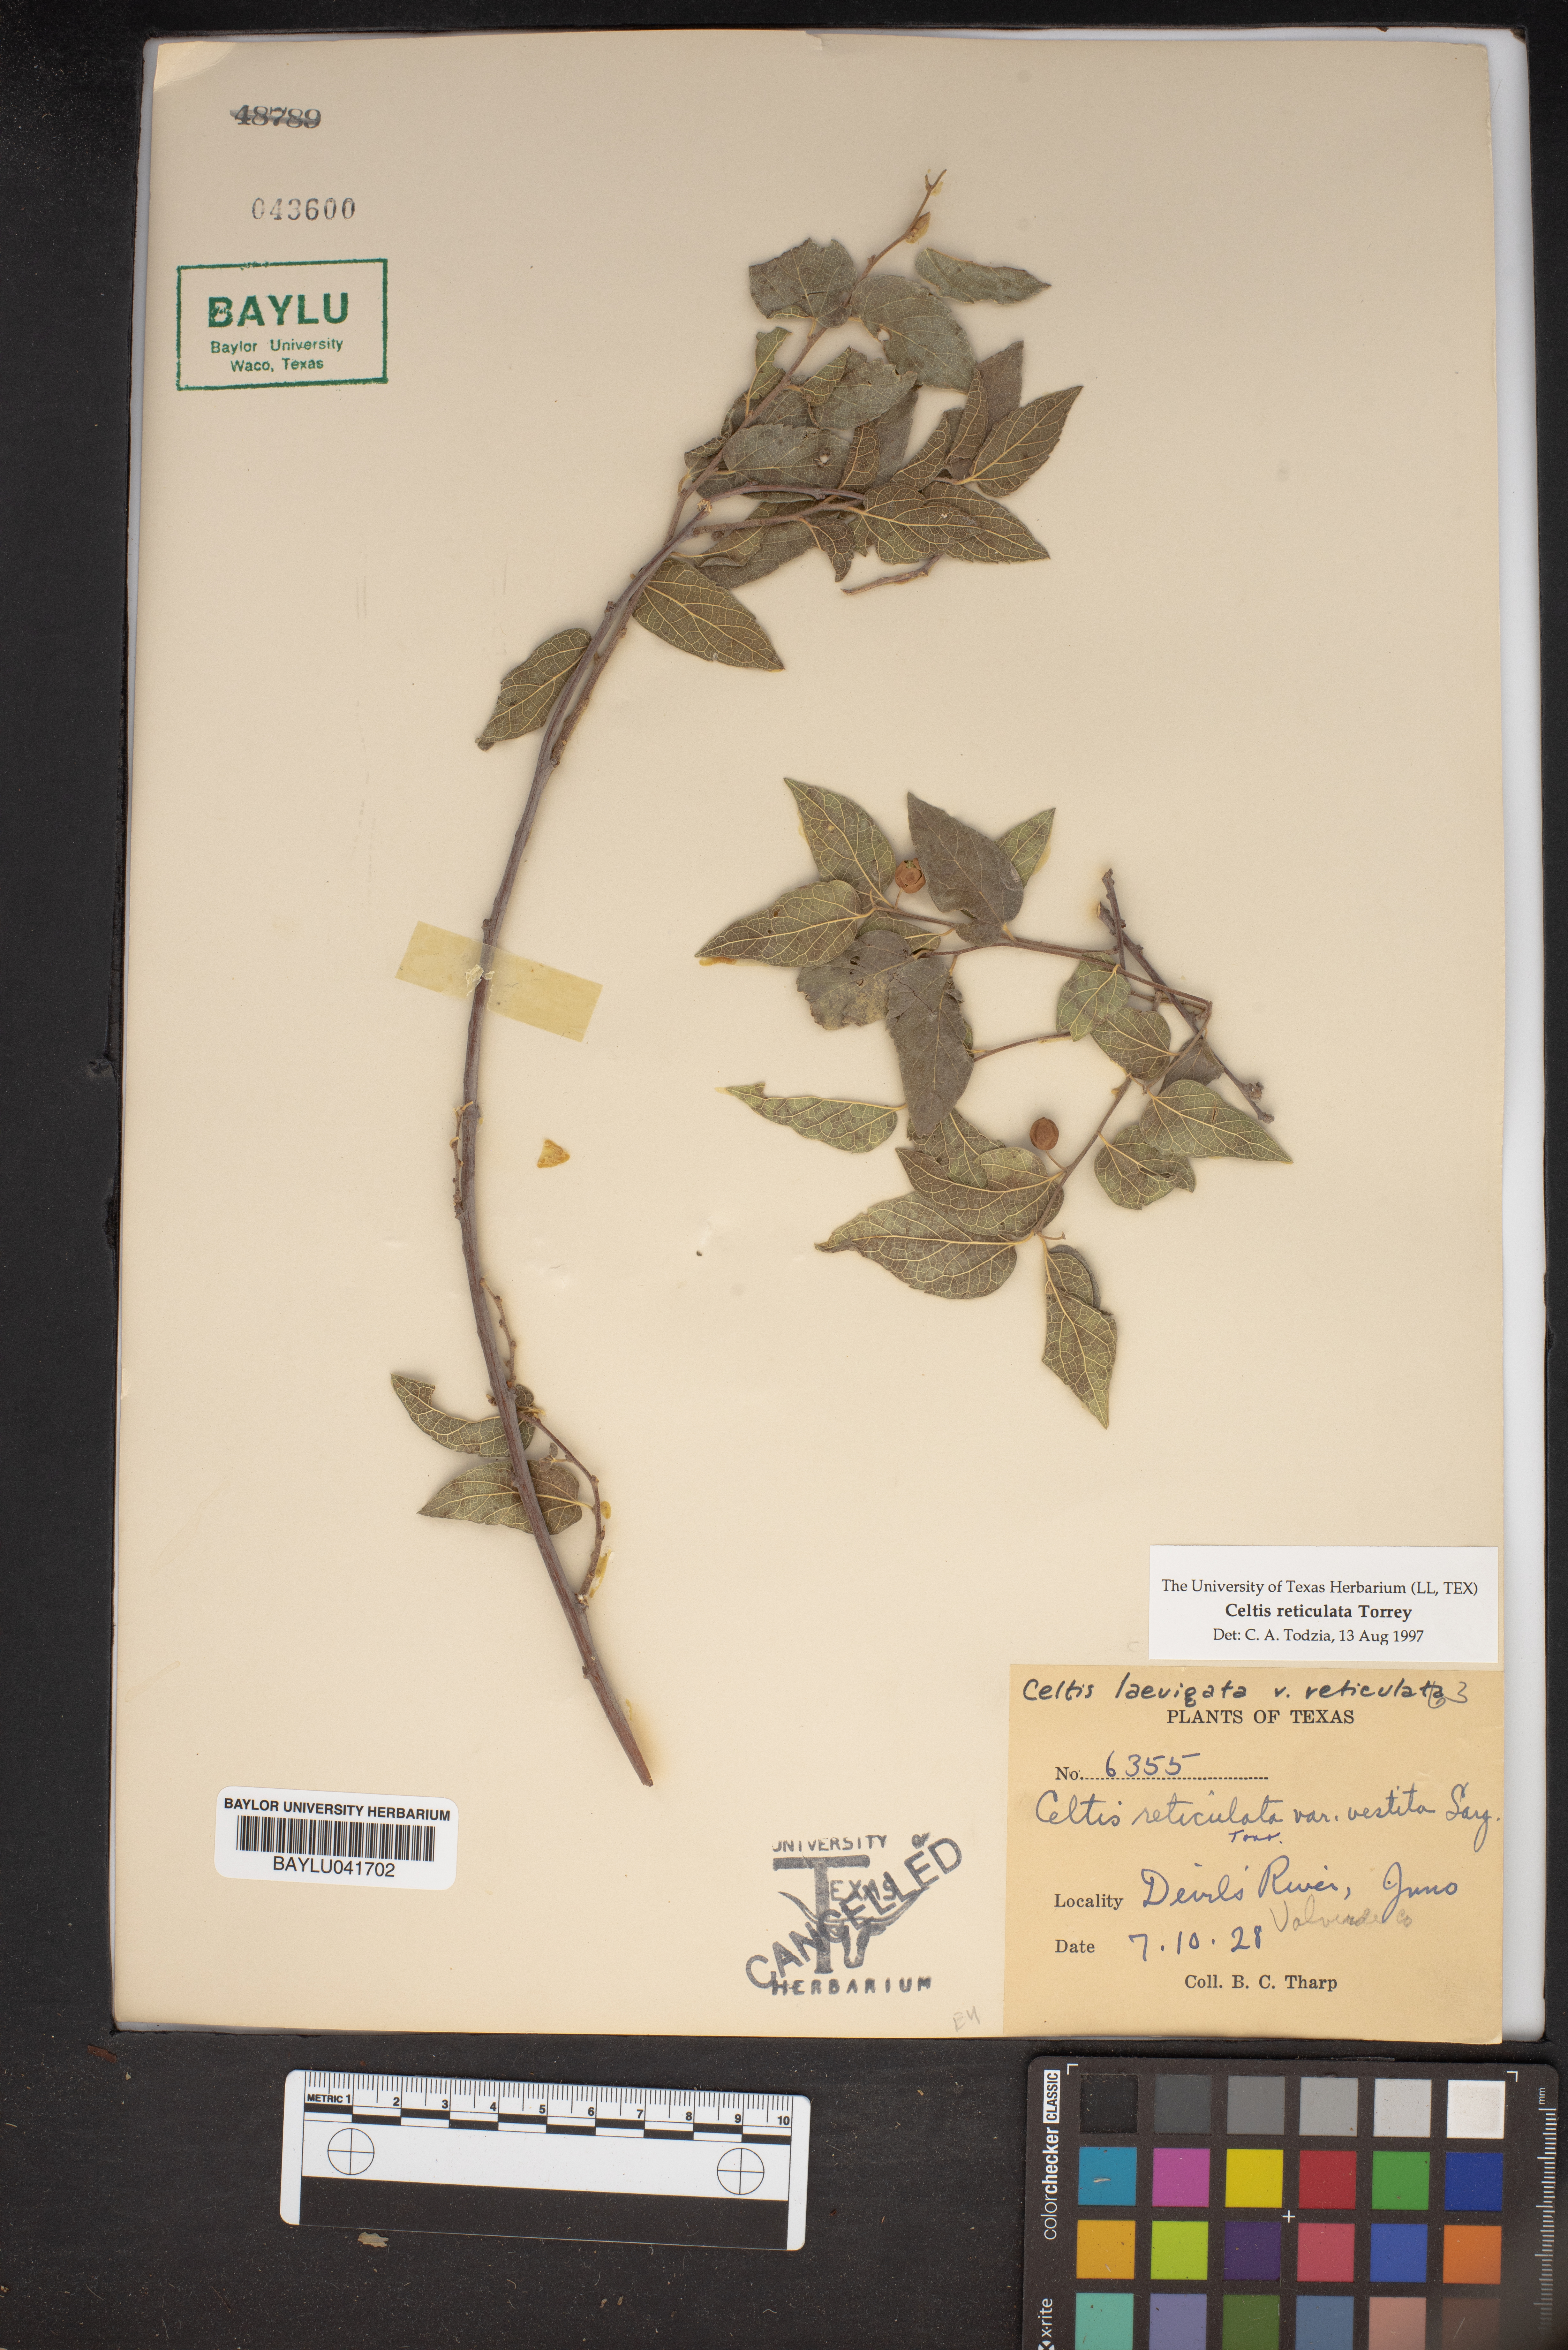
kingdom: Plantae
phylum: Tracheophyta
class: Magnoliopsida
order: Rosales
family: Cannabaceae
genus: Celtis
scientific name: Celtis reticulata
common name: Netleaf hackberry
